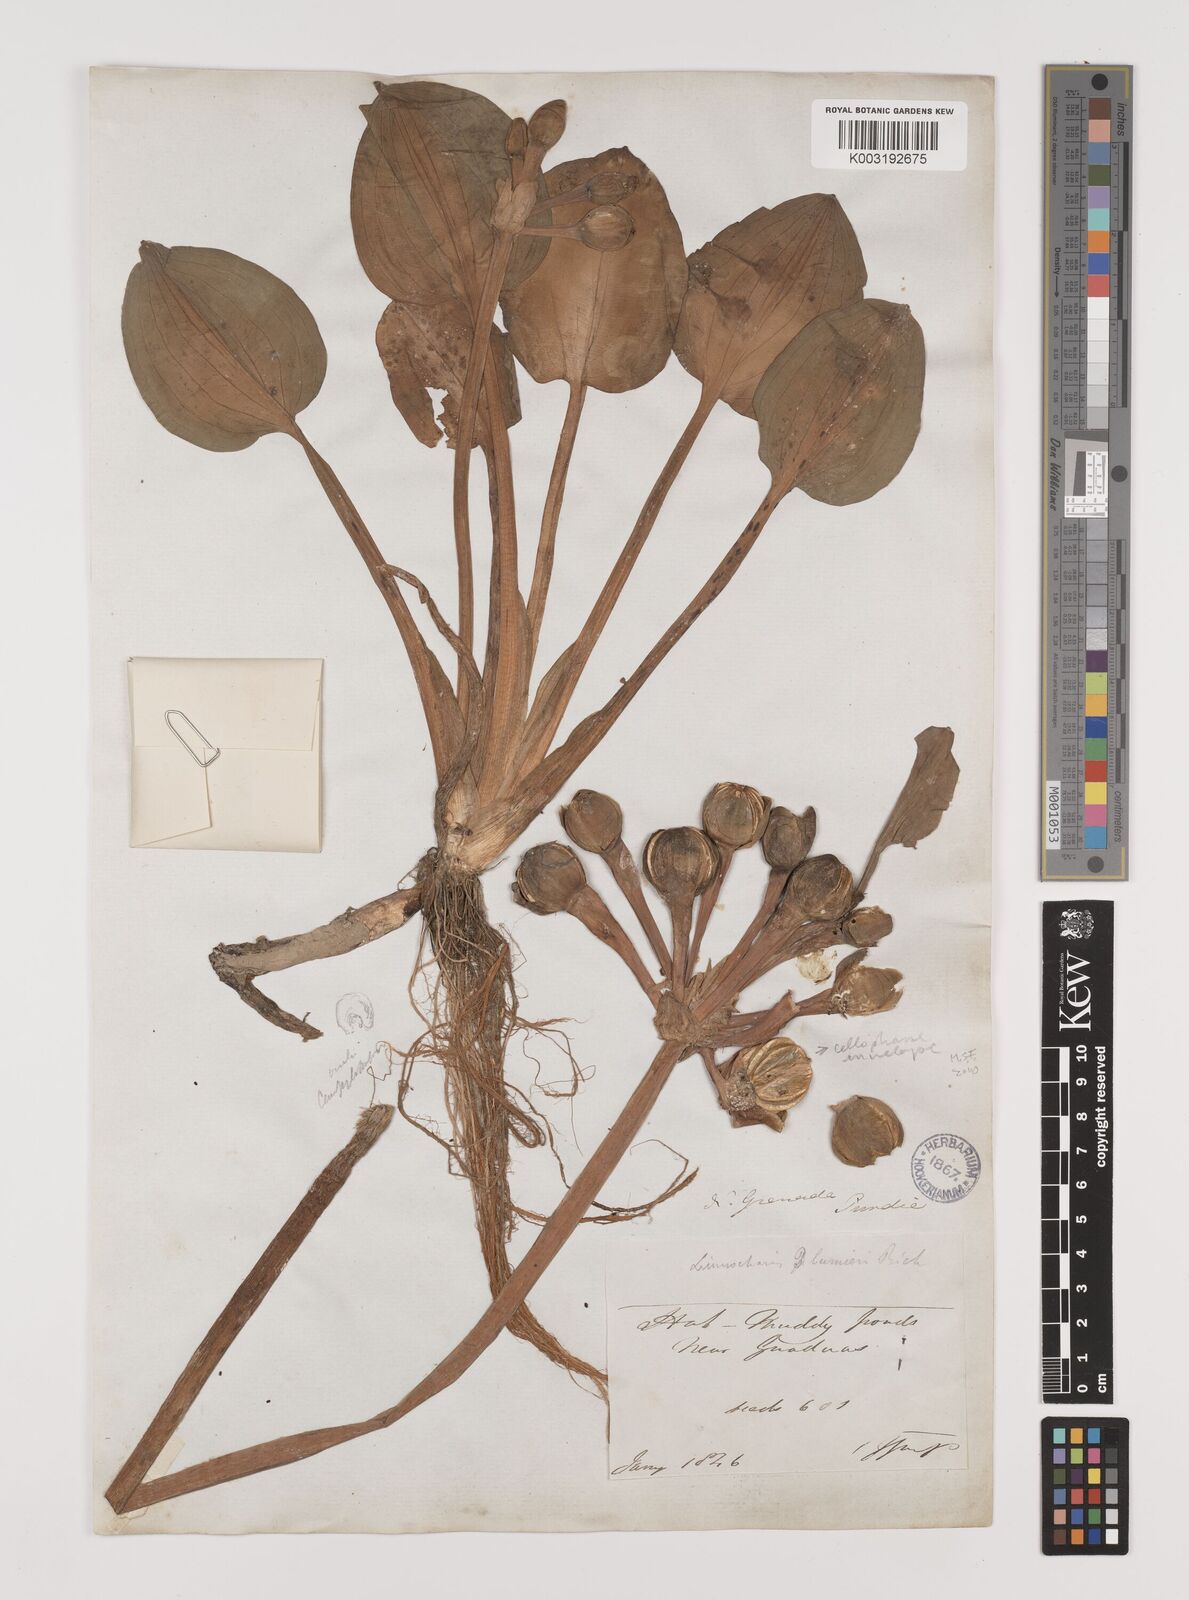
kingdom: Plantae
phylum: Tracheophyta
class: Liliopsida
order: Alismatales
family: Alismataceae
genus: Limnocharis
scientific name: Limnocharis flava
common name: Sawah-flower-rush
